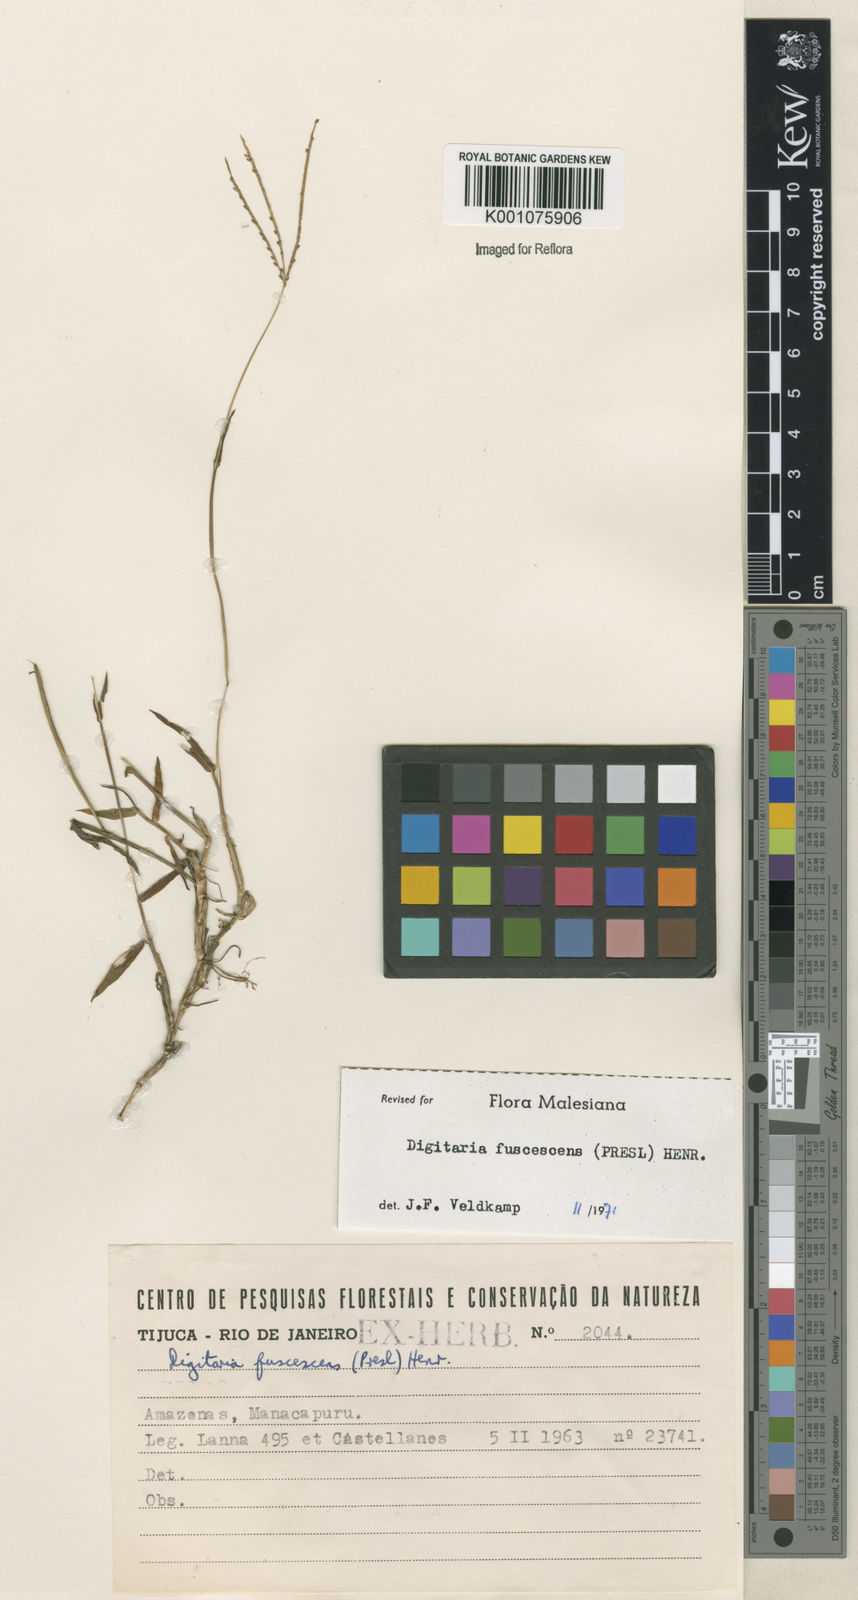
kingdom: Plantae
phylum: Tracheophyta
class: Liliopsida
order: Poales
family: Poaceae
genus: Digitaria
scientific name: Digitaria fuscescens
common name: Yellow crabgrass
